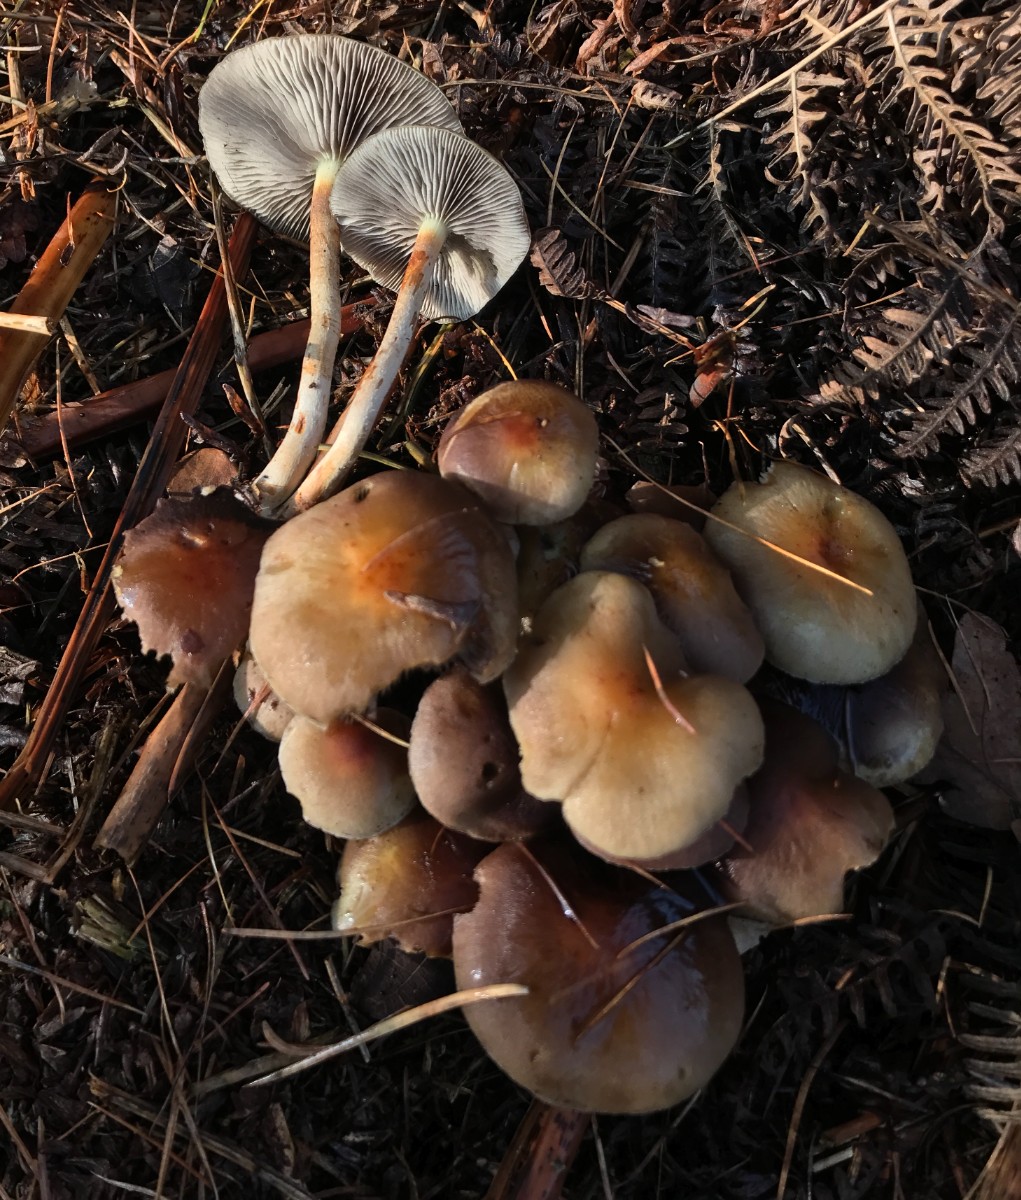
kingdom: Fungi
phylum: Basidiomycota
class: Agaricomycetes
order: Agaricales
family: Strophariaceae
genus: Hypholoma
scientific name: Hypholoma capnoides
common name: gran-svovlhat
